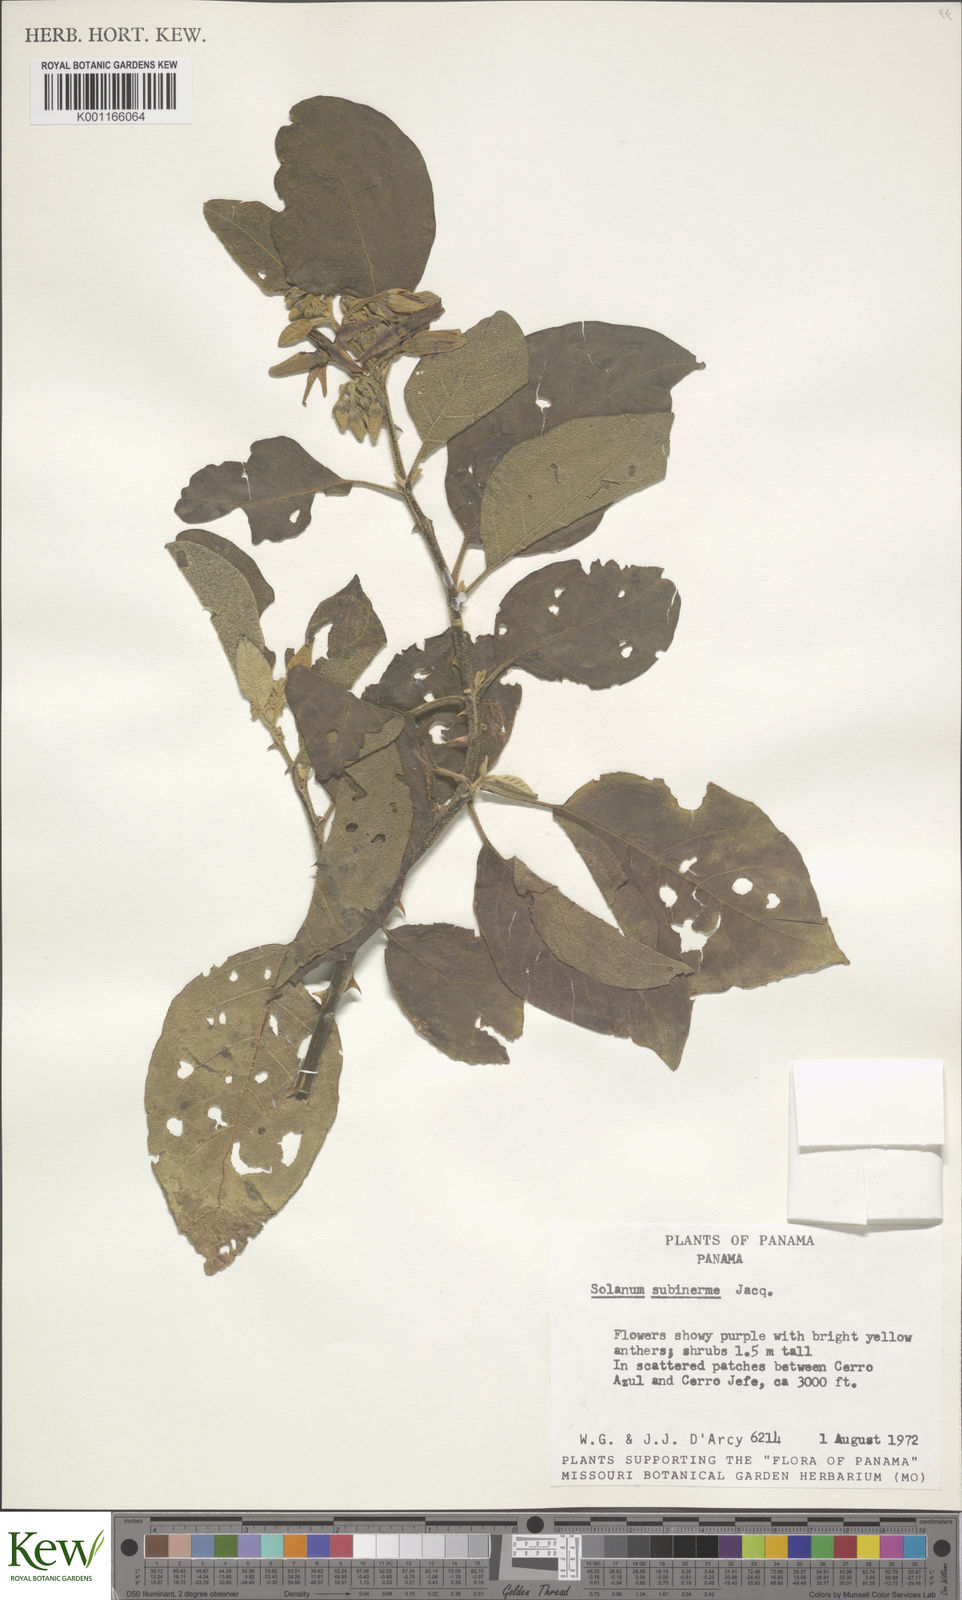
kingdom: Plantae
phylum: Tracheophyta
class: Magnoliopsida
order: Solanales
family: Solanaceae
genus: Solanum
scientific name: Solanum subinerme
